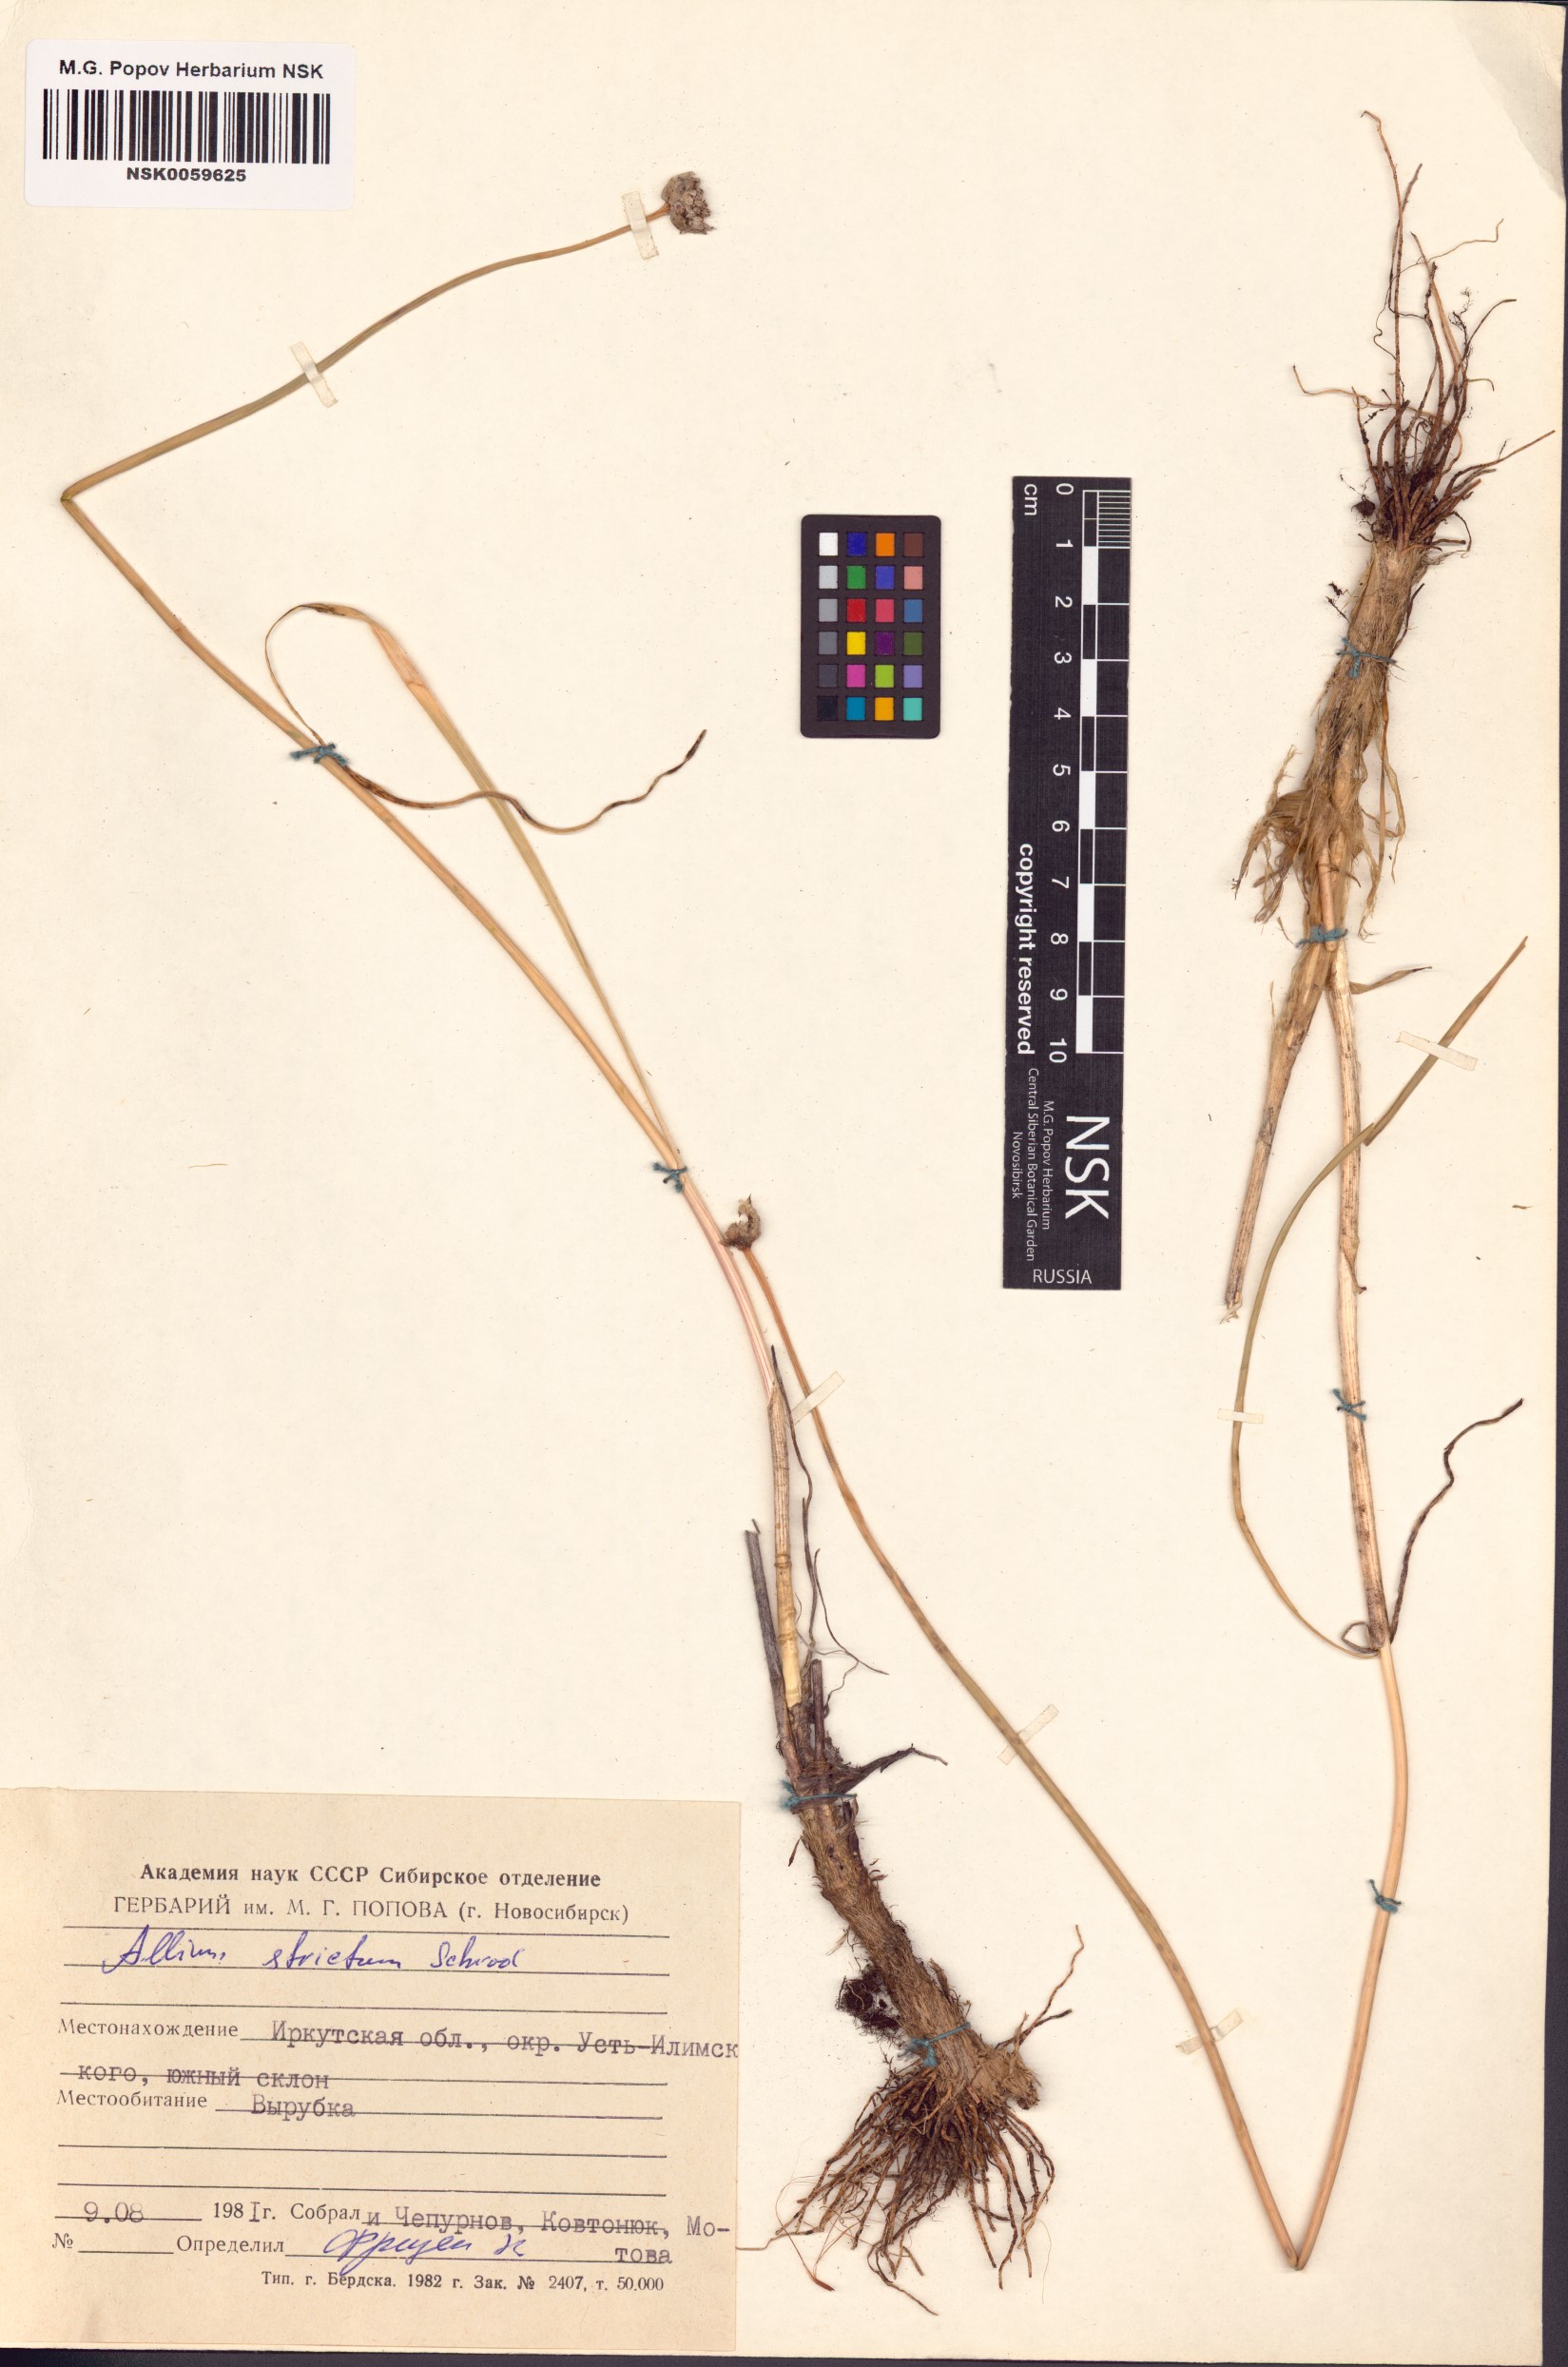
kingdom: Plantae
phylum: Tracheophyta
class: Liliopsida
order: Asparagales
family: Amaryllidaceae
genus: Allium
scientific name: Allium strictum
